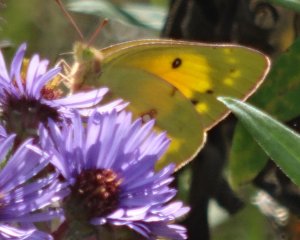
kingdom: Animalia
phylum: Arthropoda
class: Insecta
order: Lepidoptera
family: Pieridae
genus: Colias
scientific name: Colias eurytheme
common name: Orange Sulphur
